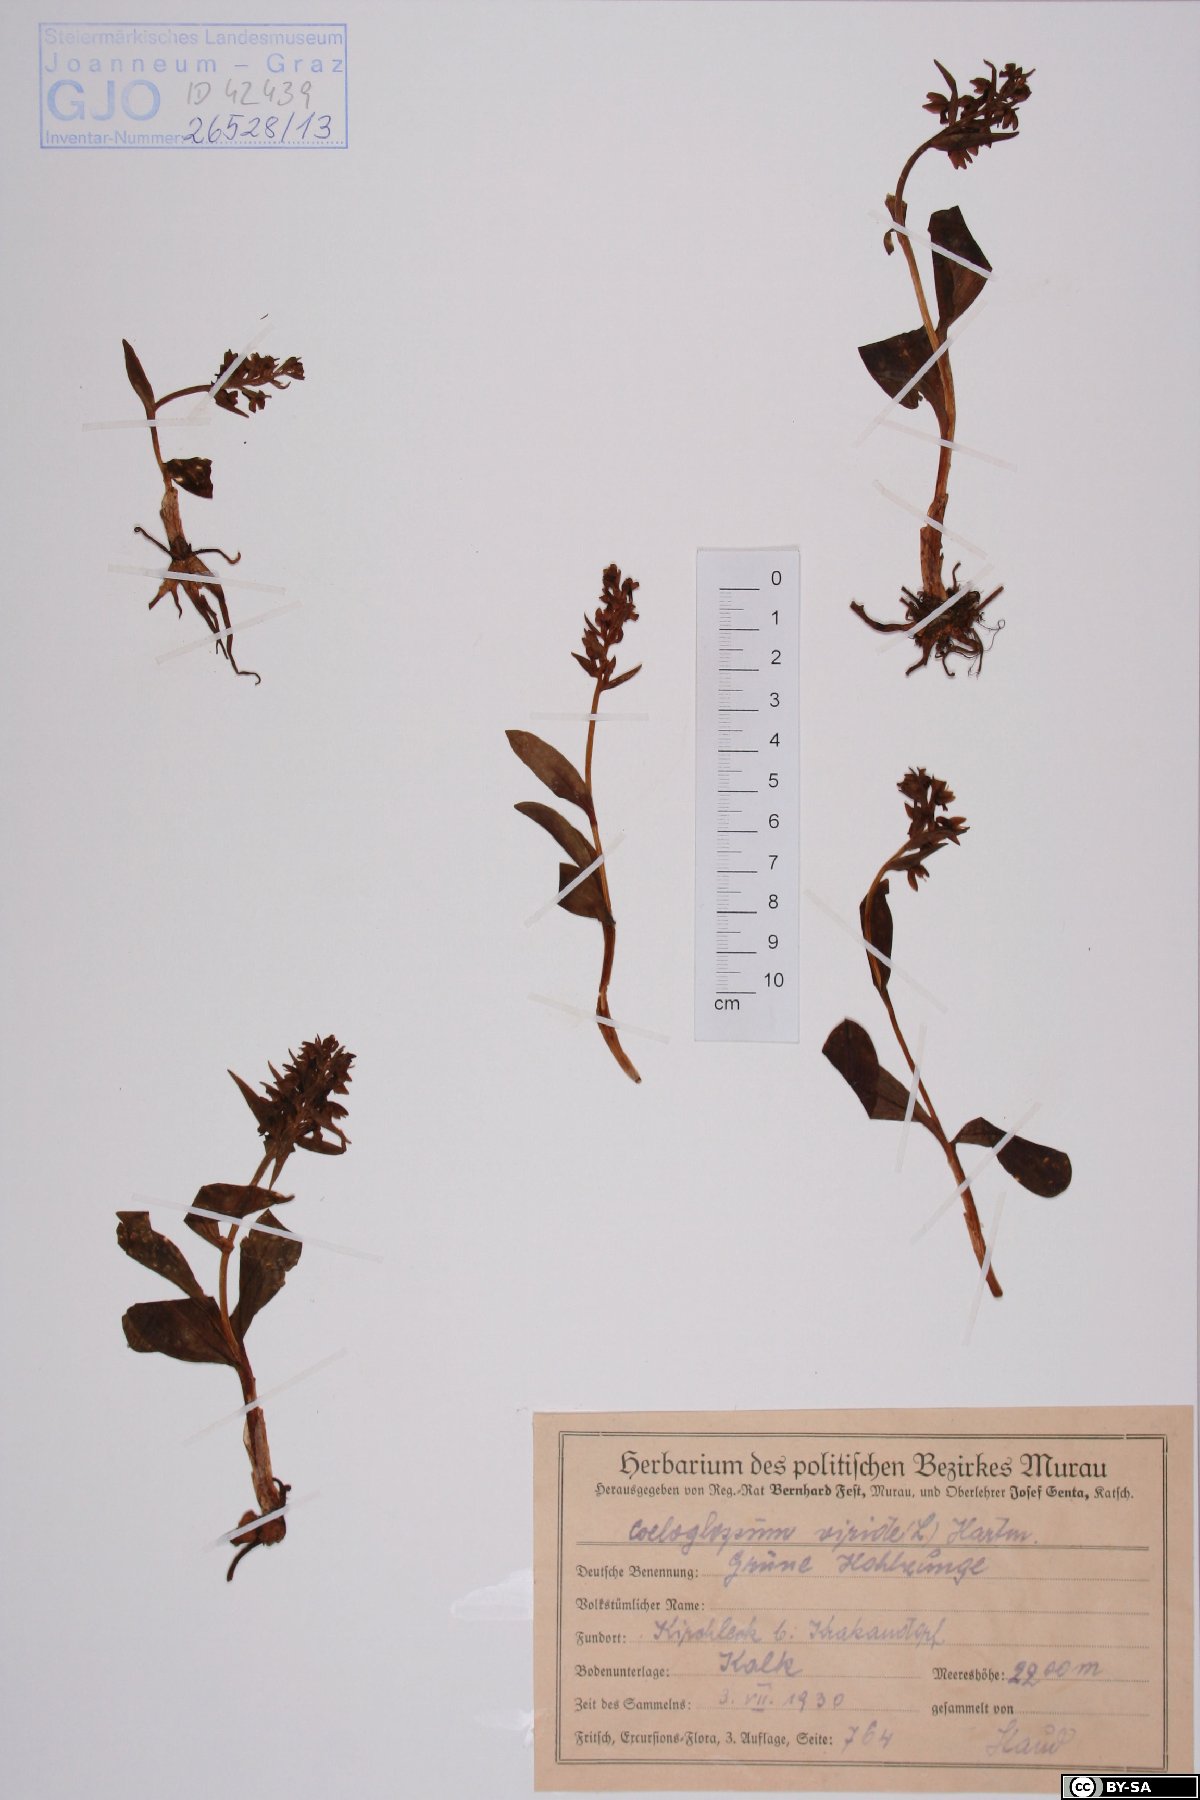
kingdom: Plantae
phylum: Tracheophyta
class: Liliopsida
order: Asparagales
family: Orchidaceae
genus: Dactylorhiza
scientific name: Dactylorhiza viridis
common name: Longbract frog orchid
